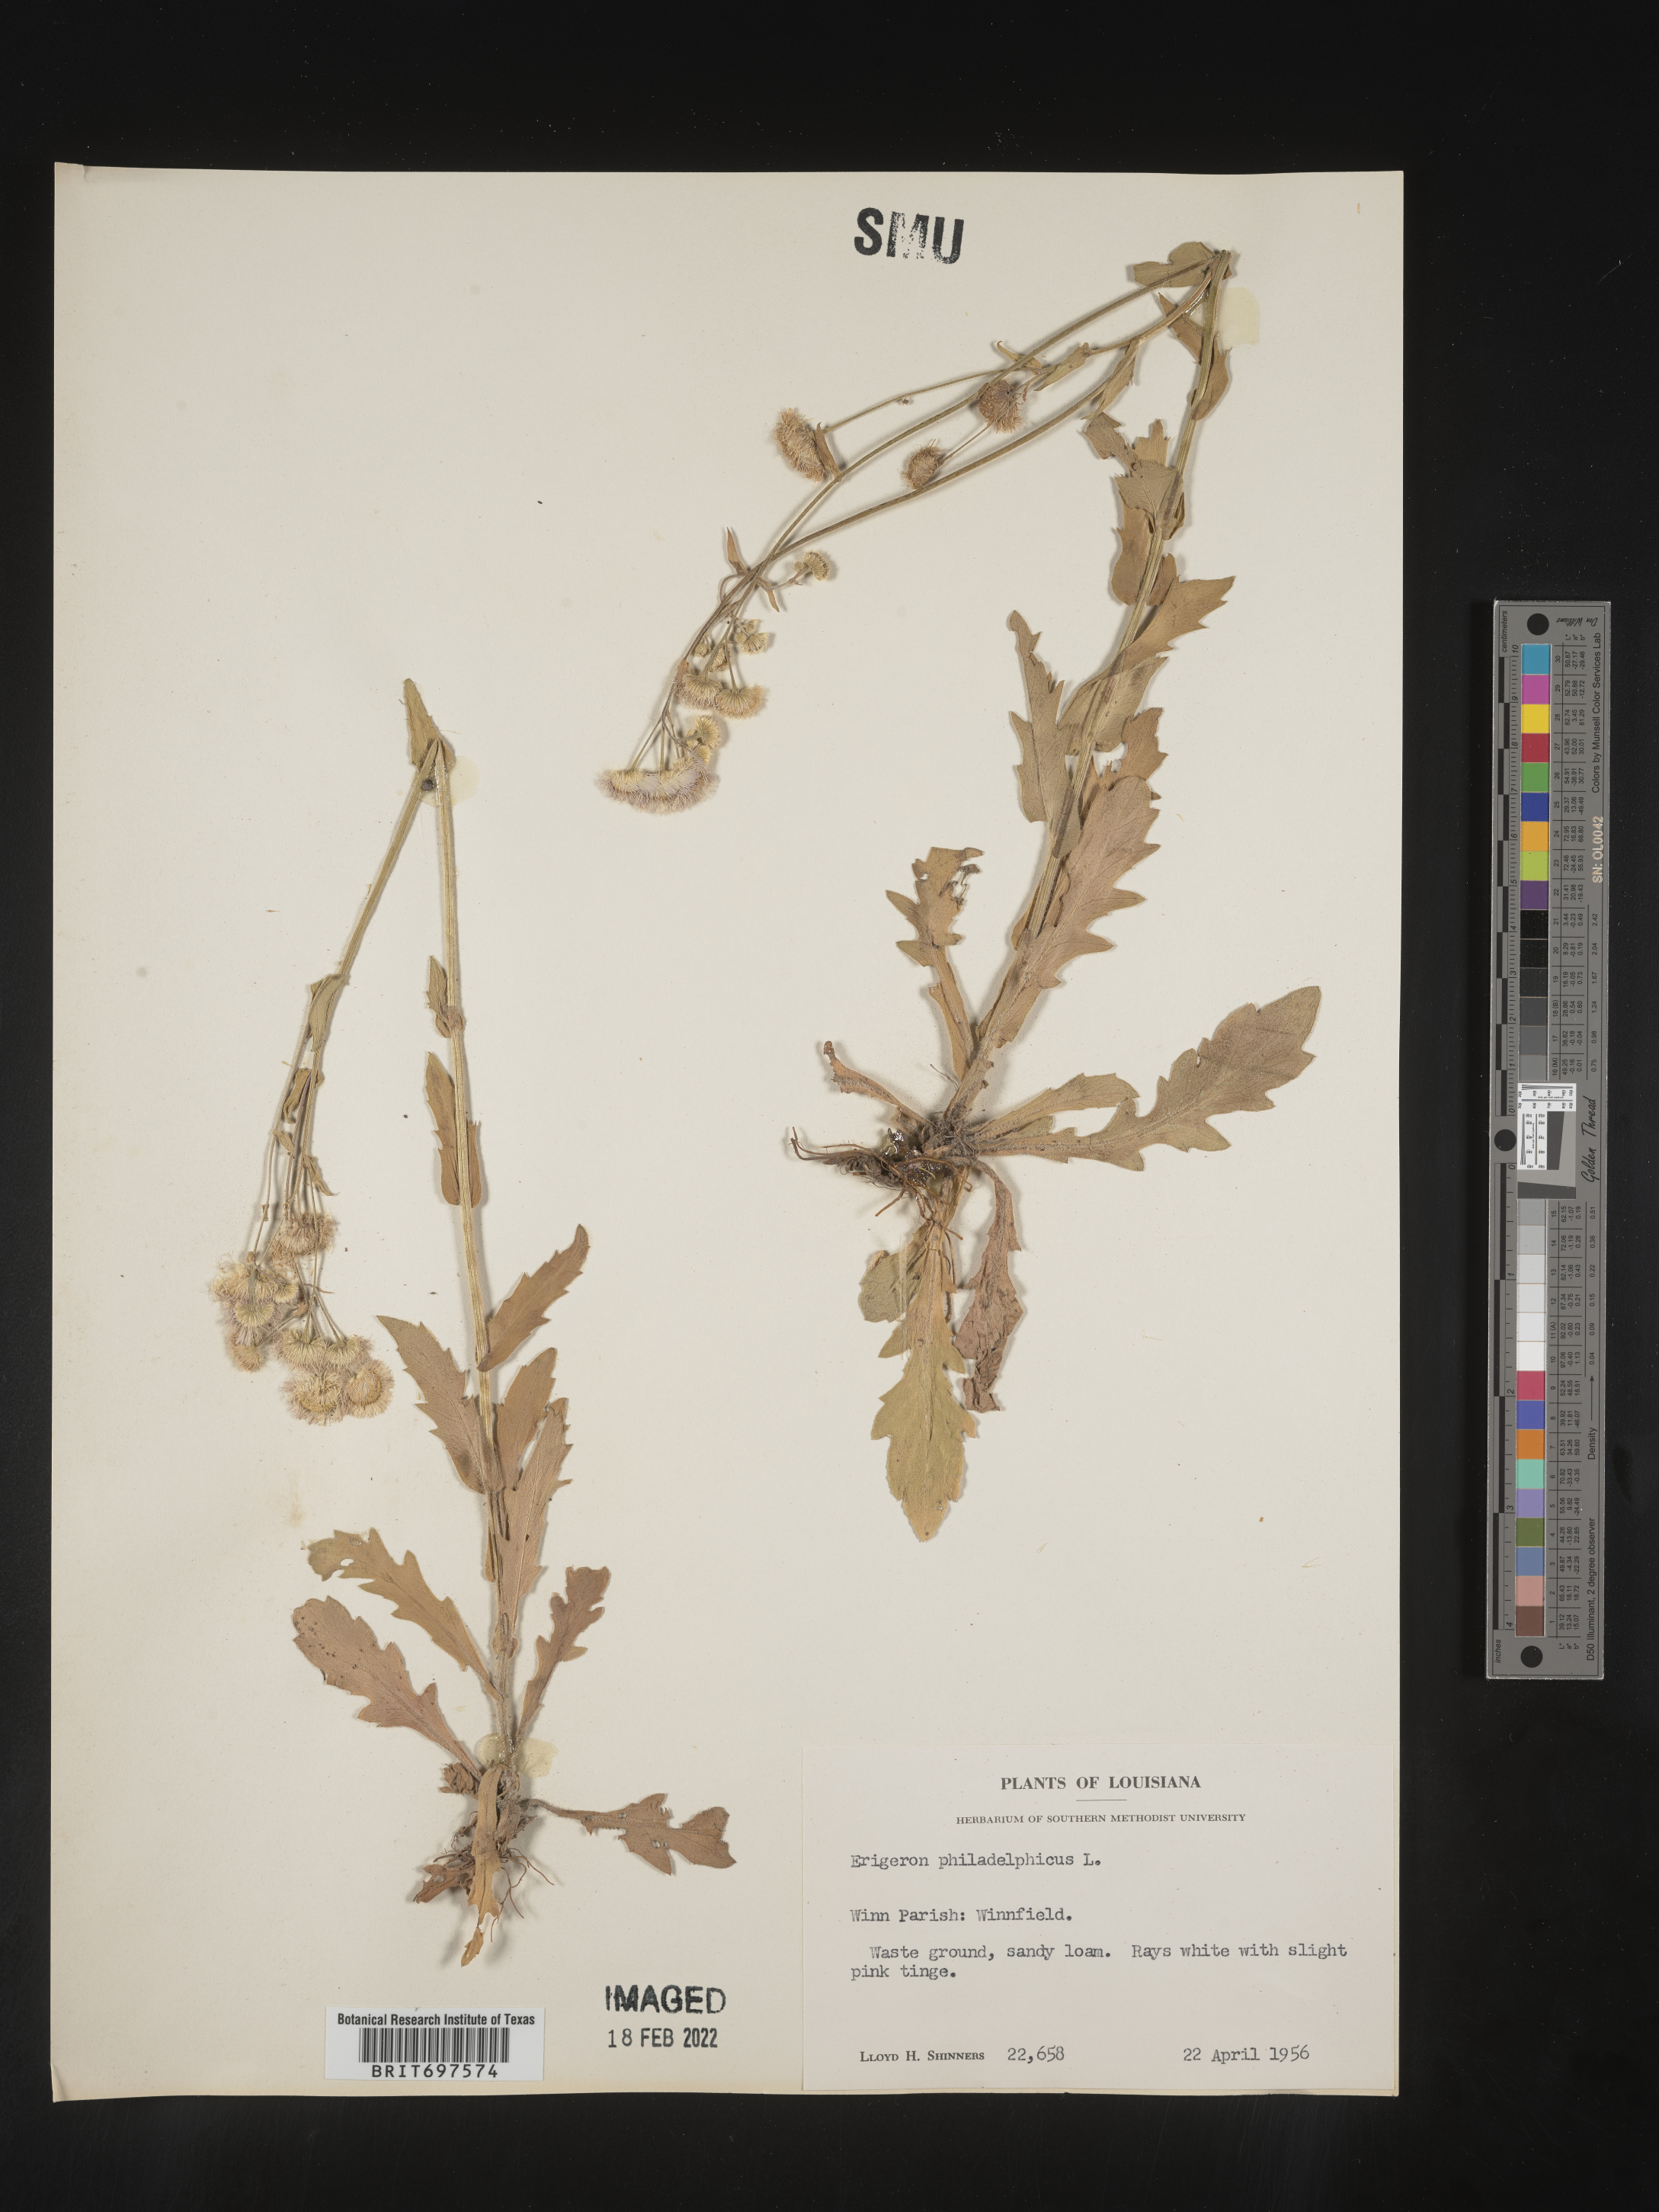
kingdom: Plantae
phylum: Tracheophyta
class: Magnoliopsida
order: Asterales
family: Asteraceae
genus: Erigeron
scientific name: Erigeron philadelphicus
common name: Robin's-plantain
